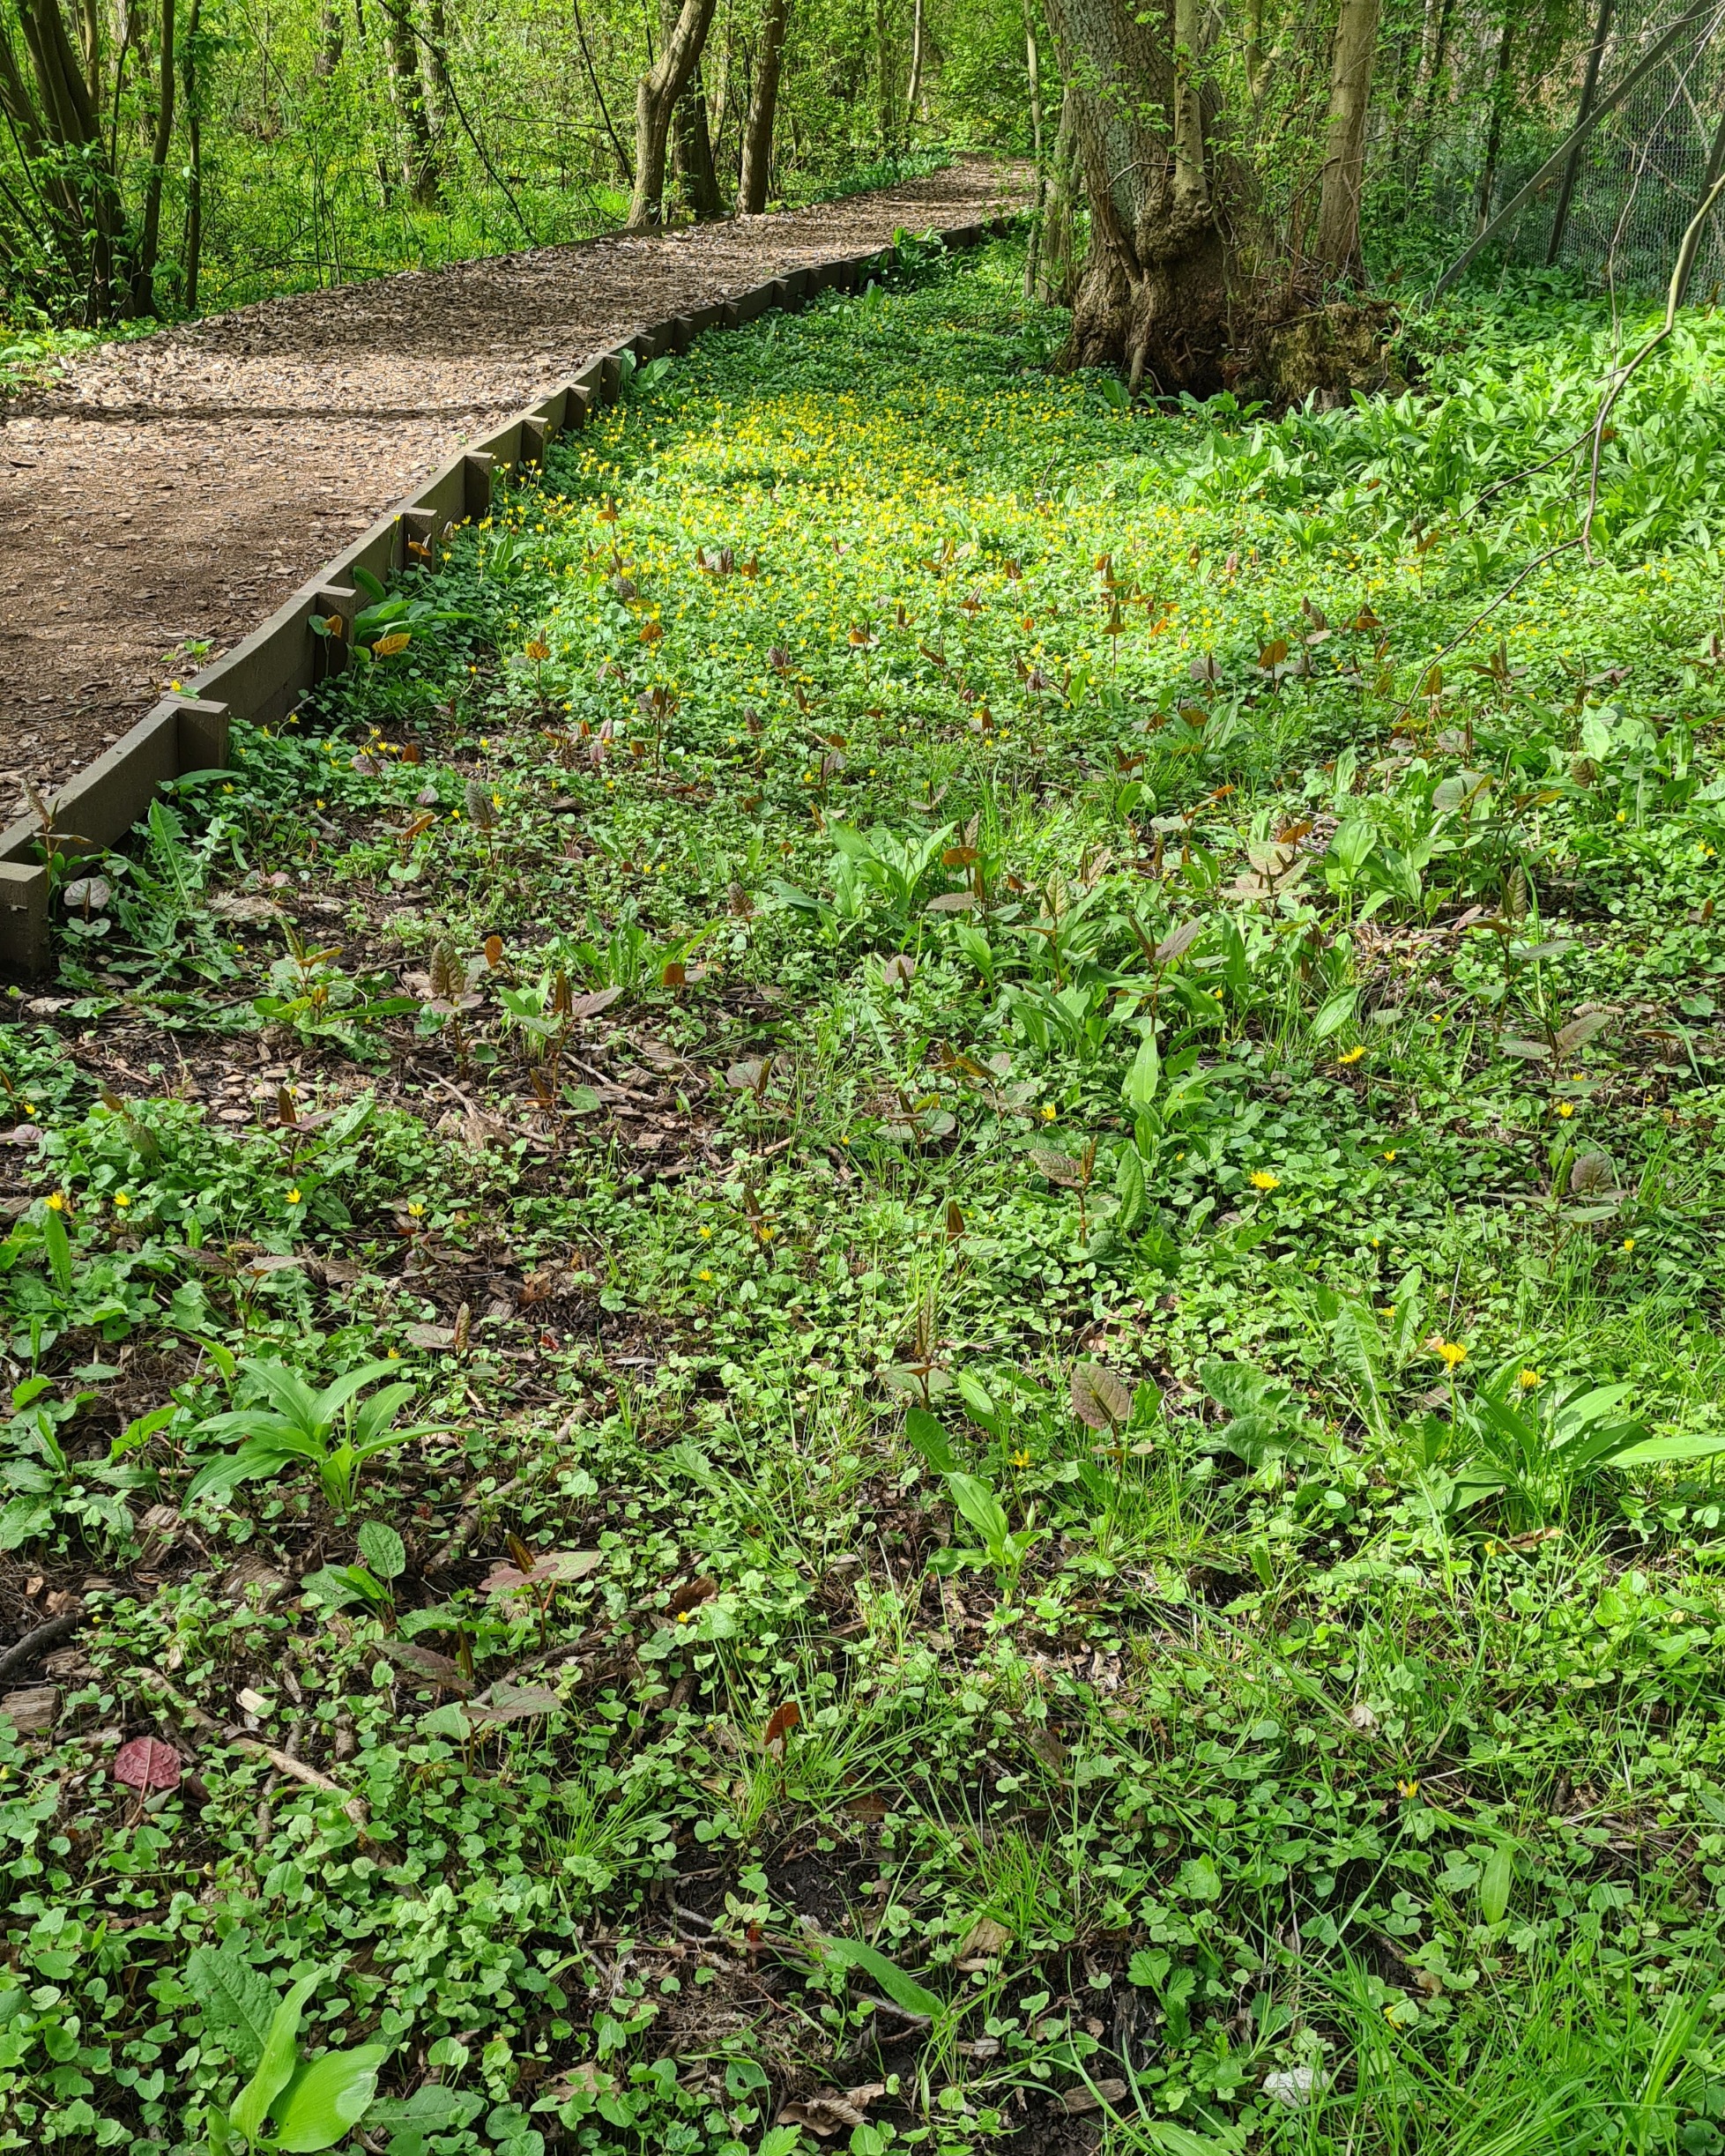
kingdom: Plantae
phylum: Tracheophyta
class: Magnoliopsida
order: Caryophyllales
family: Polygonaceae
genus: Reynoutria
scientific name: Reynoutria sachalinensis
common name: Kæmpe-pileurt
